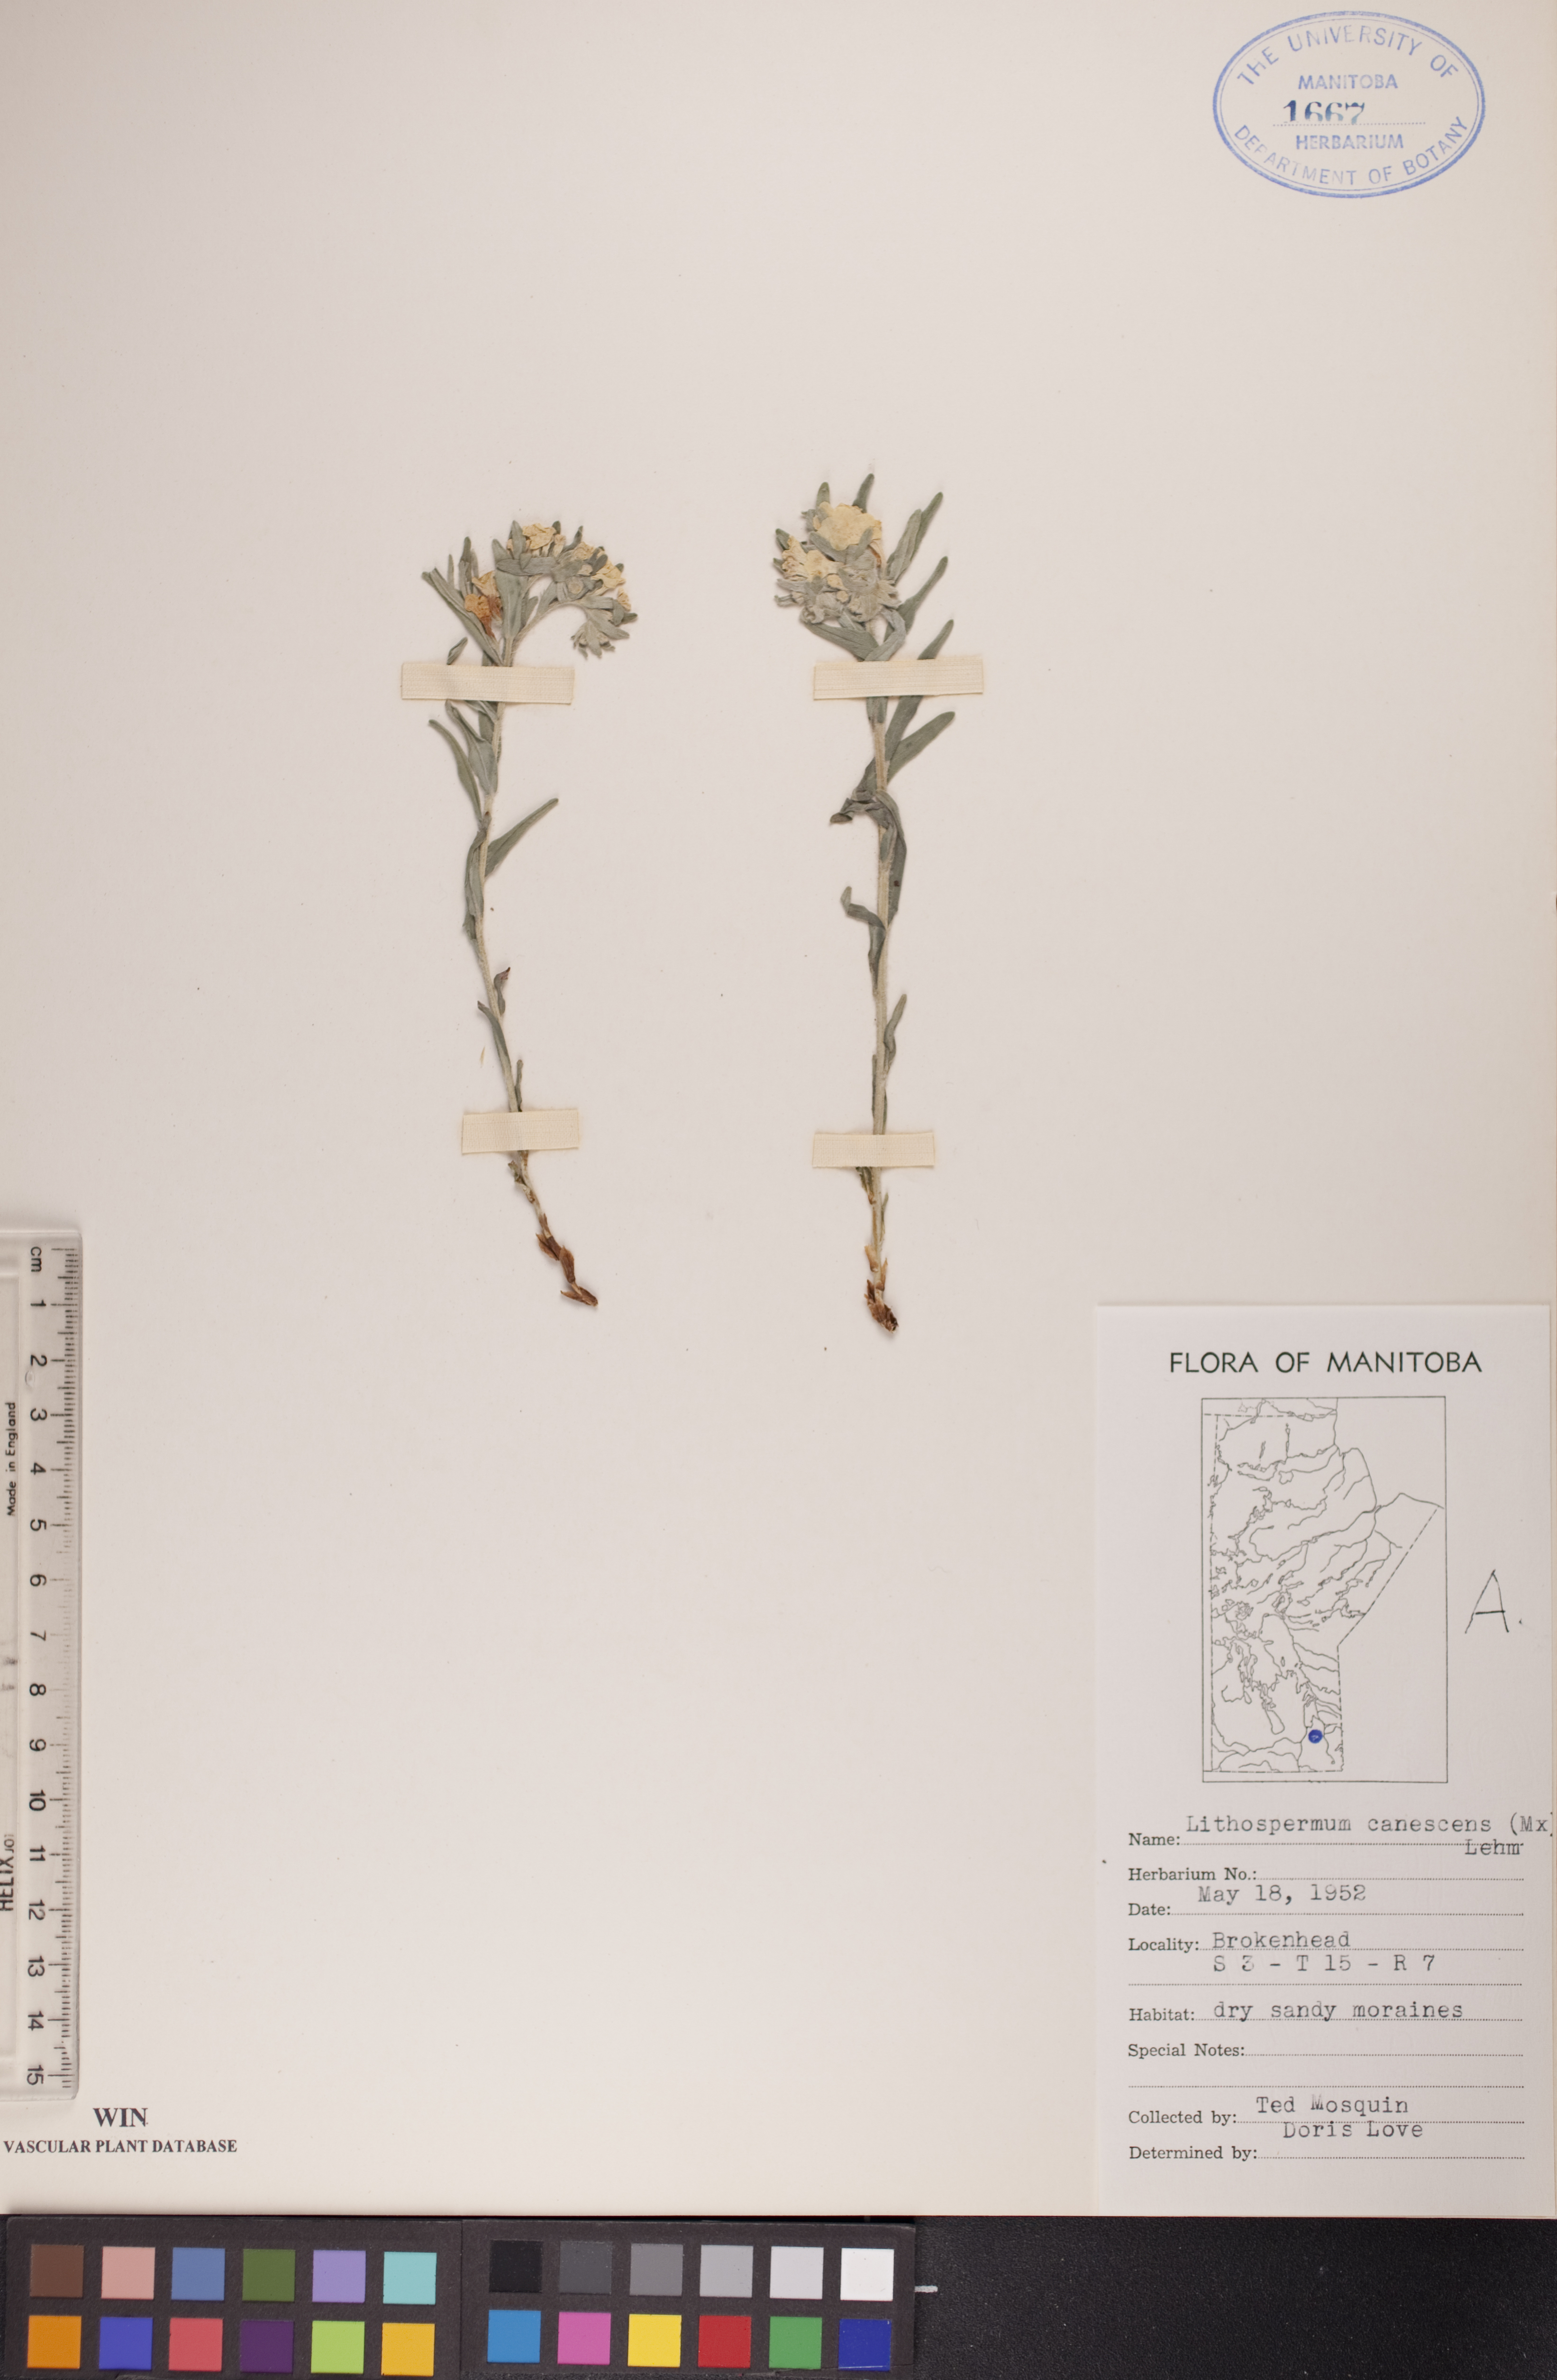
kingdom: Plantae
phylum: Tracheophyta
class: Magnoliopsida
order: Boraginales
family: Boraginaceae
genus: Lithospermum
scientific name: Lithospermum canescens
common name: Hoary puccoon
